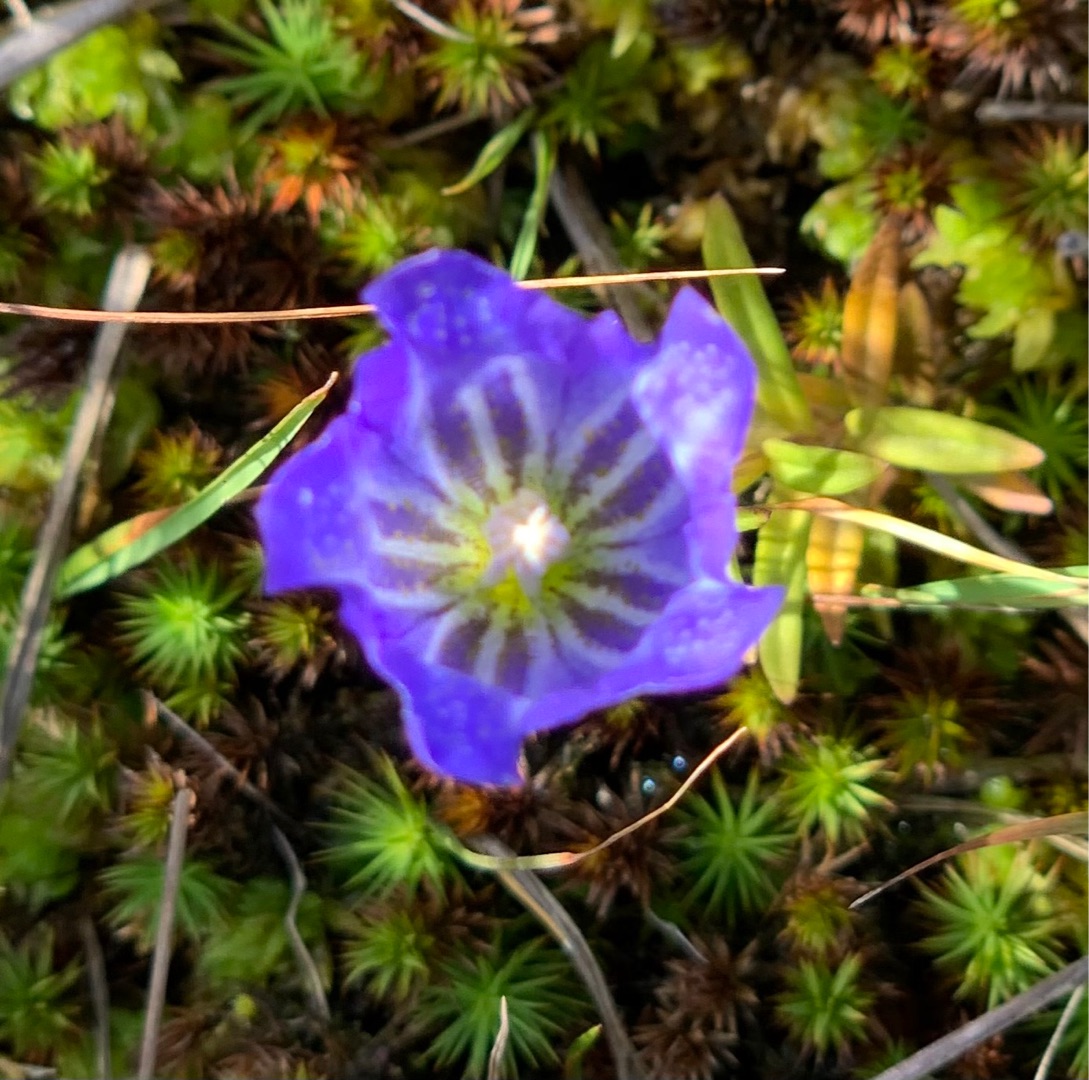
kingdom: Plantae
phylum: Tracheophyta
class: Magnoliopsida
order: Gentianales
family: Gentianaceae
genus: Gentiana
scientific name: Gentiana pneumonanthe
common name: Klokke-ensian
